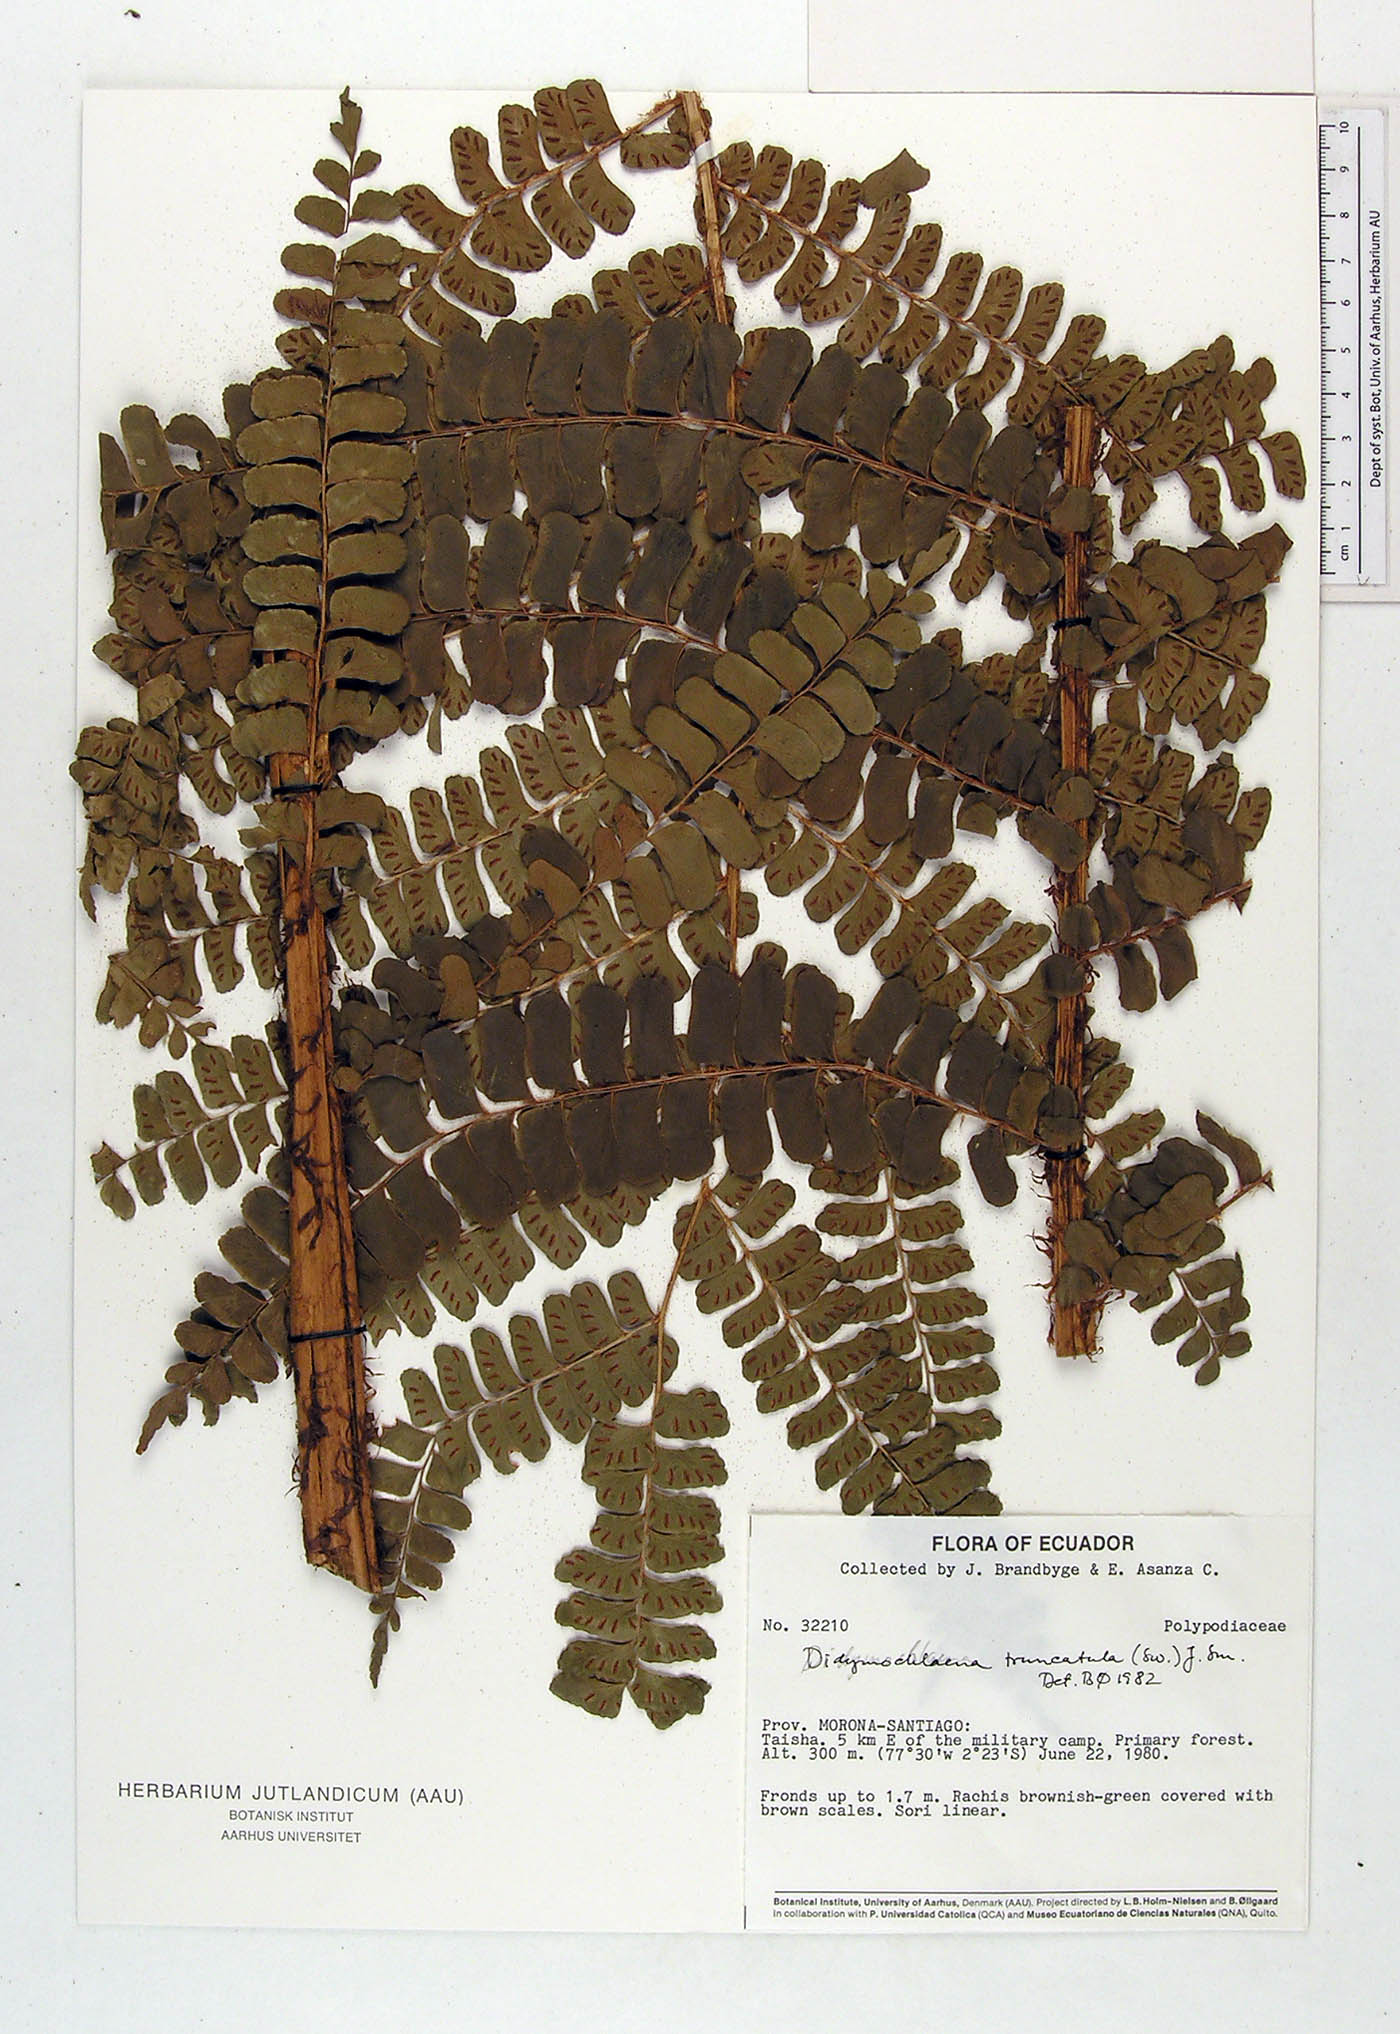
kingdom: Plantae
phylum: Tracheophyta
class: Polypodiopsida
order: Polypodiales
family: Didymochlaenaceae
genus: Didymochlaena
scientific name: Didymochlaena truncatula
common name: Mahogany fern
